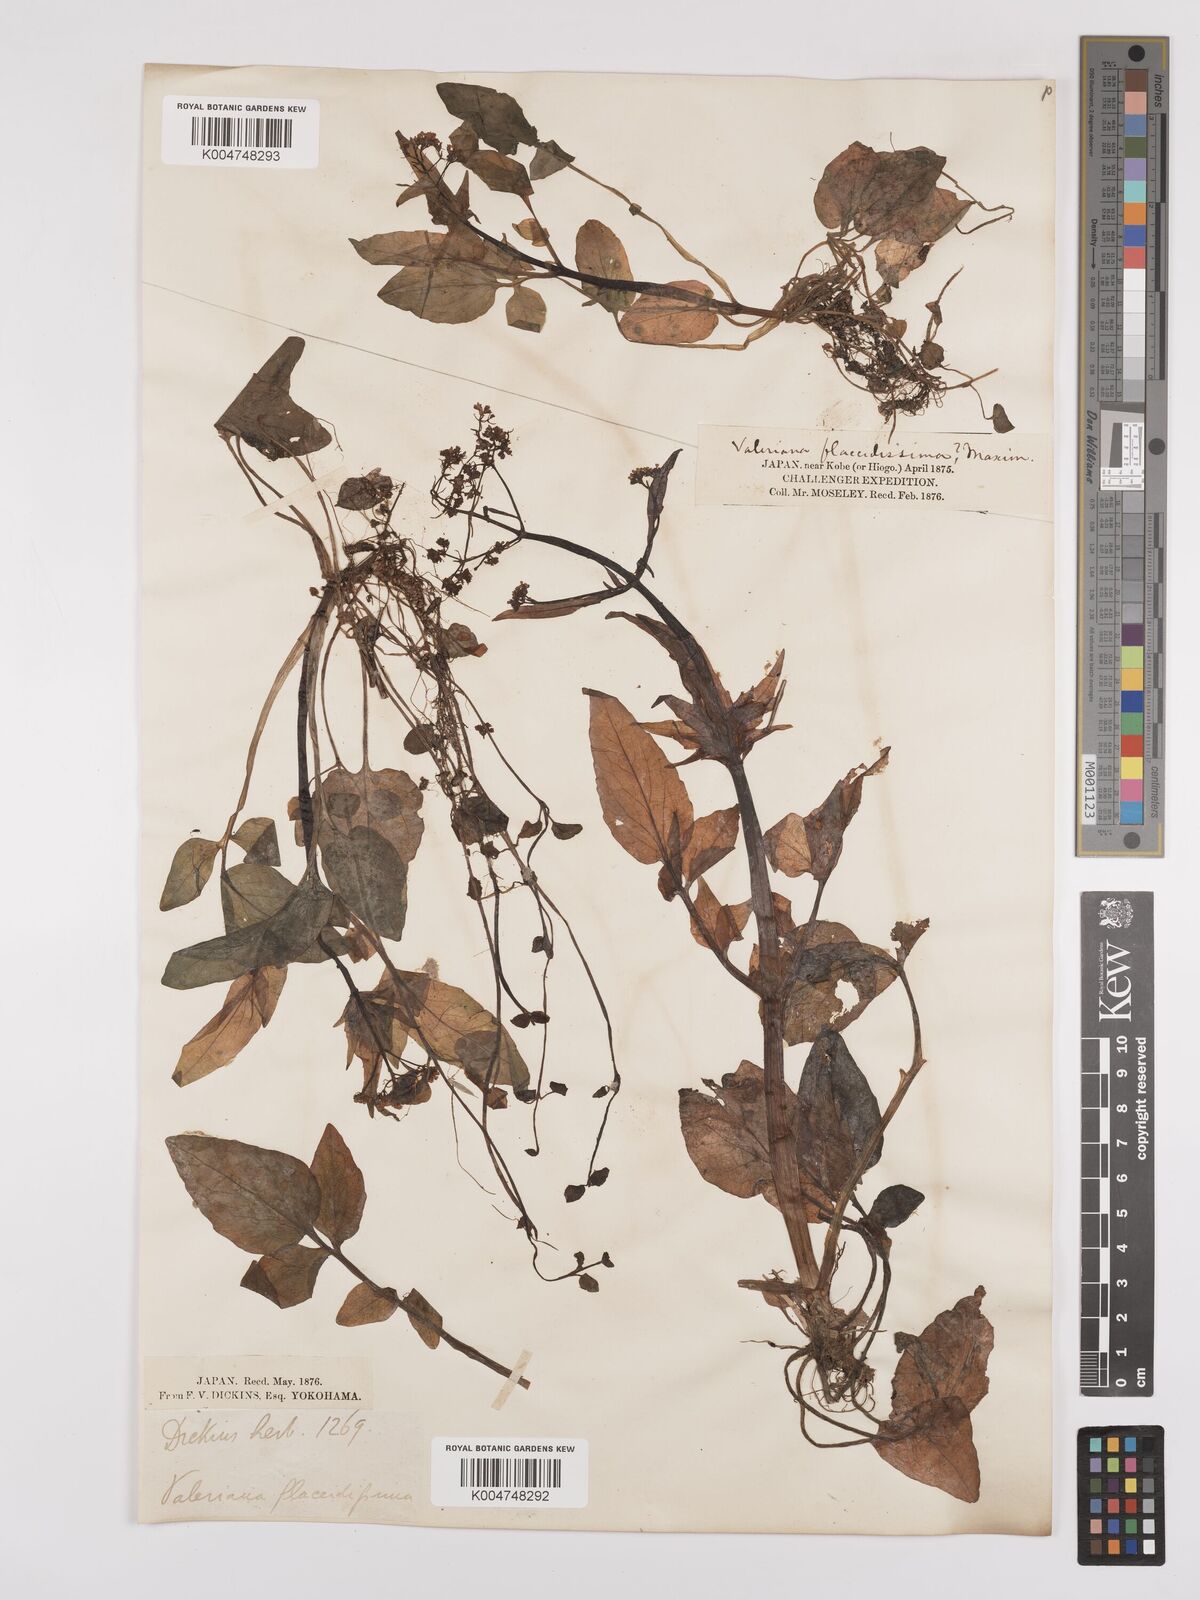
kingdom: Plantae
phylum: Tracheophyta
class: Magnoliopsida
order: Dipsacales
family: Caprifoliaceae
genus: Valeriana
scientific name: Valeriana flaccidissima
